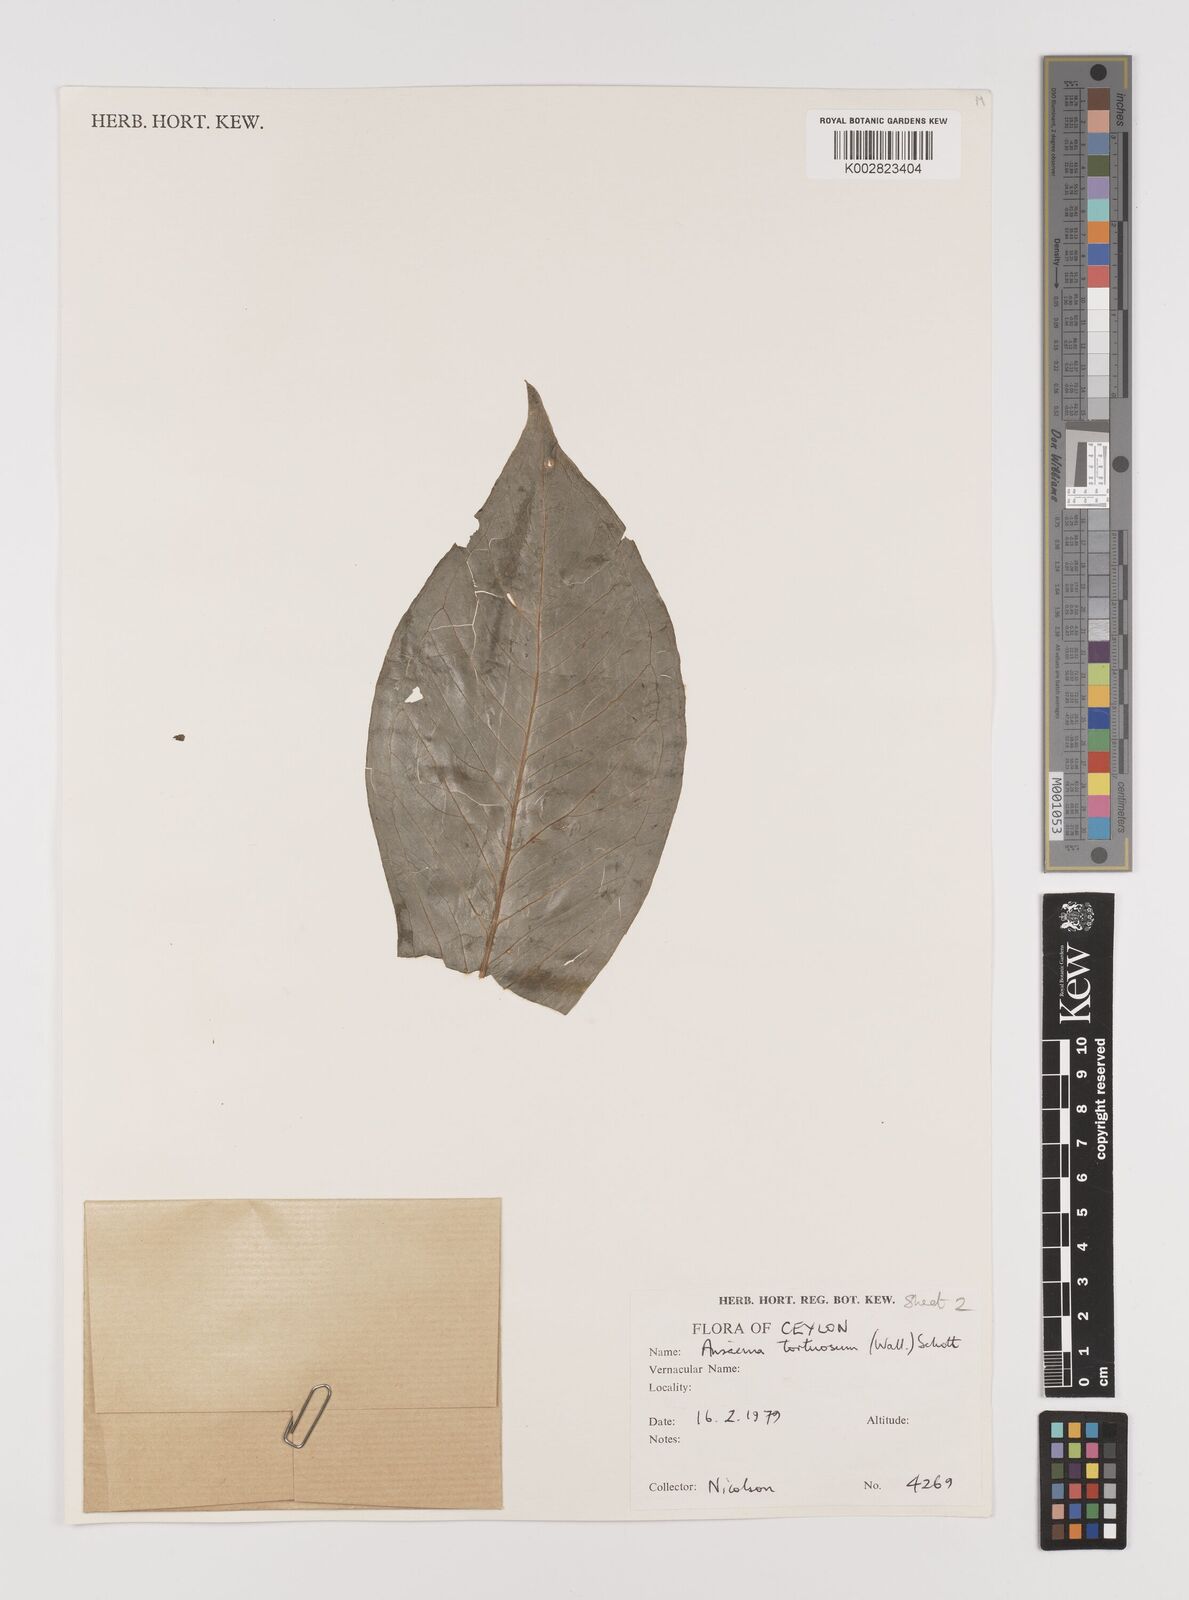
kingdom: Plantae
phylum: Tracheophyta
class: Liliopsida
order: Alismatales
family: Araceae
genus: Arisaema
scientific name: Arisaema tortuosum
